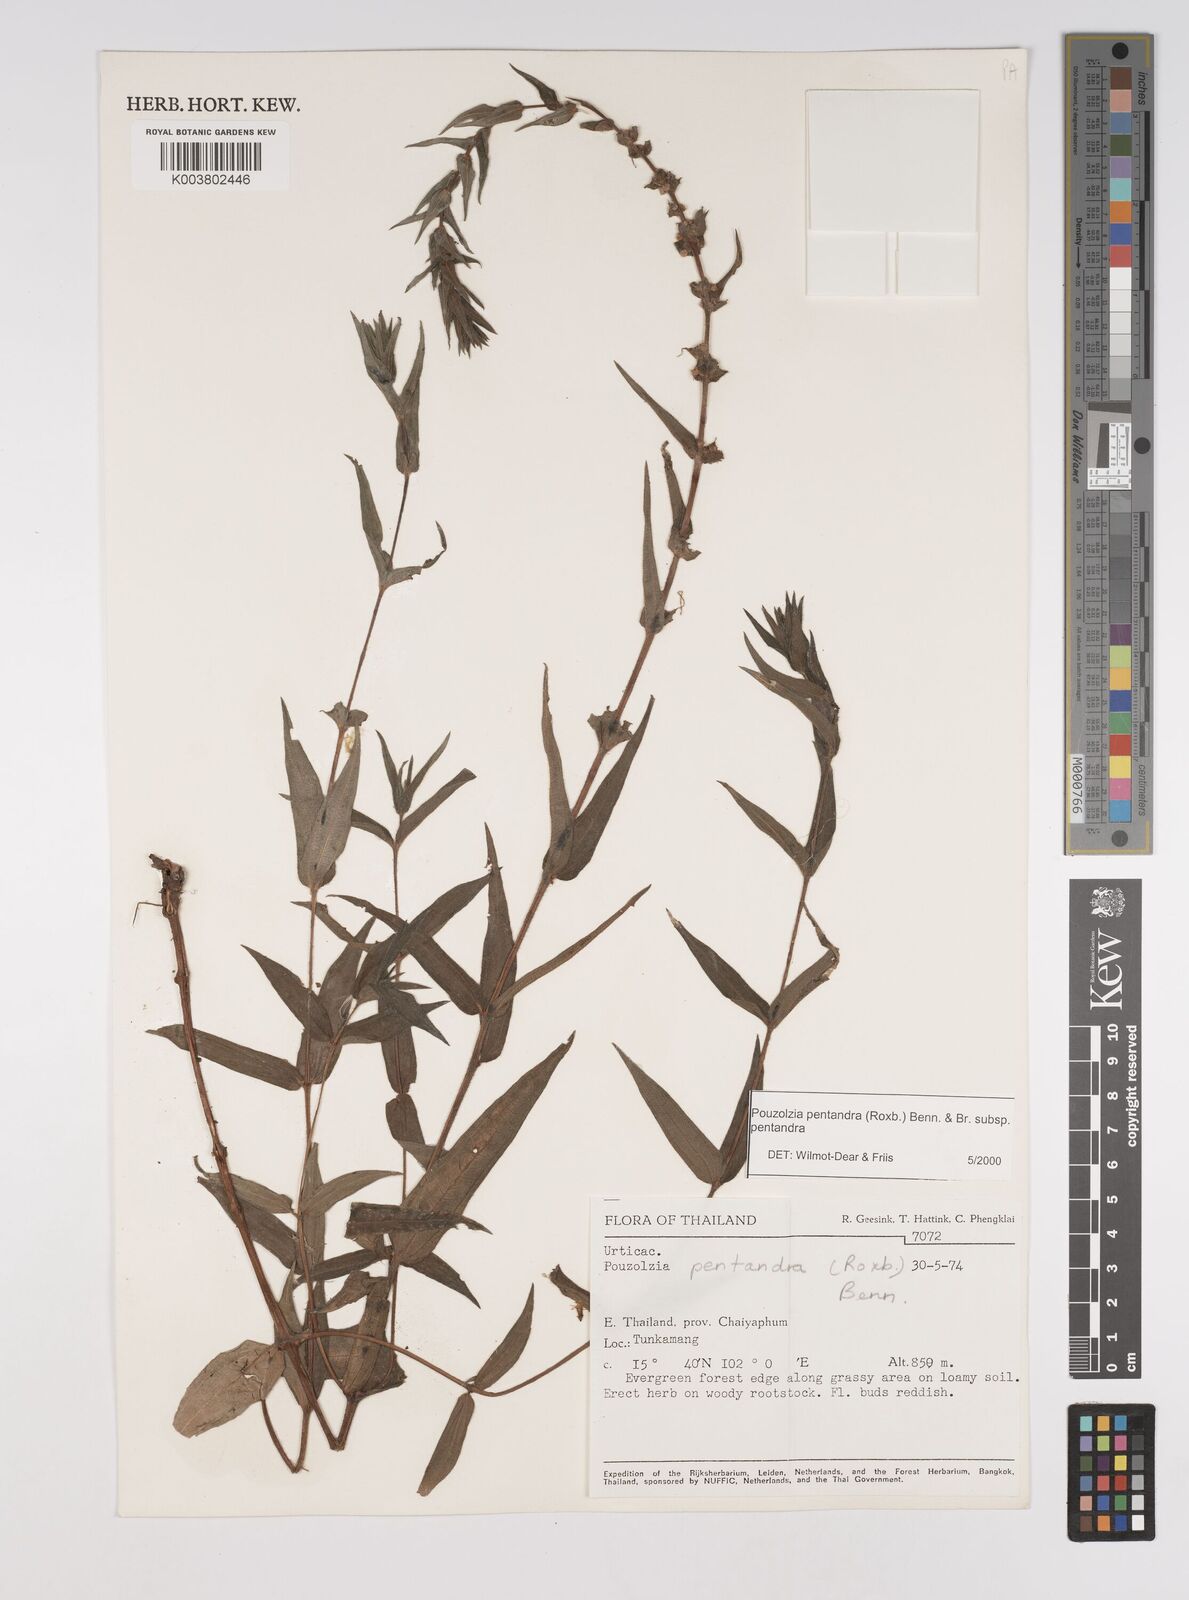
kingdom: Plantae
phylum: Tracheophyta
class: Magnoliopsida
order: Rosales
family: Urticaceae
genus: Gonostegia
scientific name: Gonostegia pentandra
